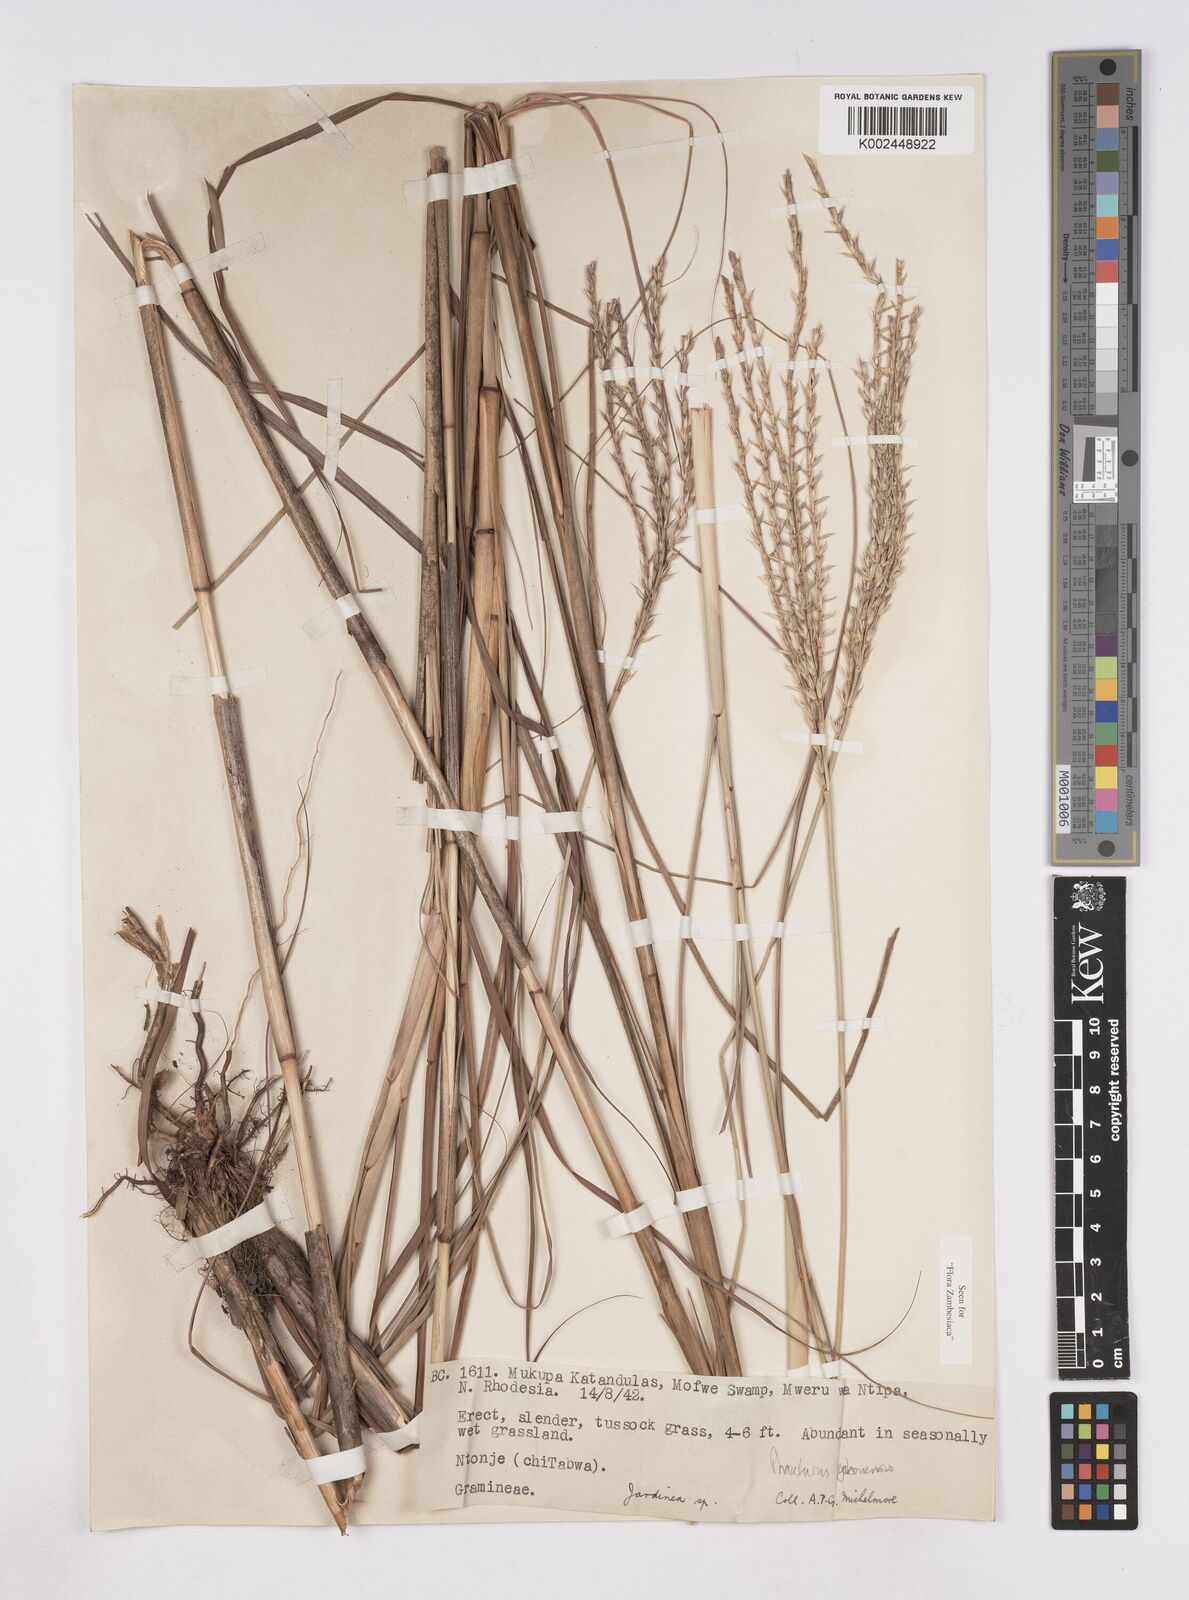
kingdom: Plantae
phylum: Tracheophyta
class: Liliopsida
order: Poales
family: Poaceae
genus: Phacelurus
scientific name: Phacelurus gabonensis
